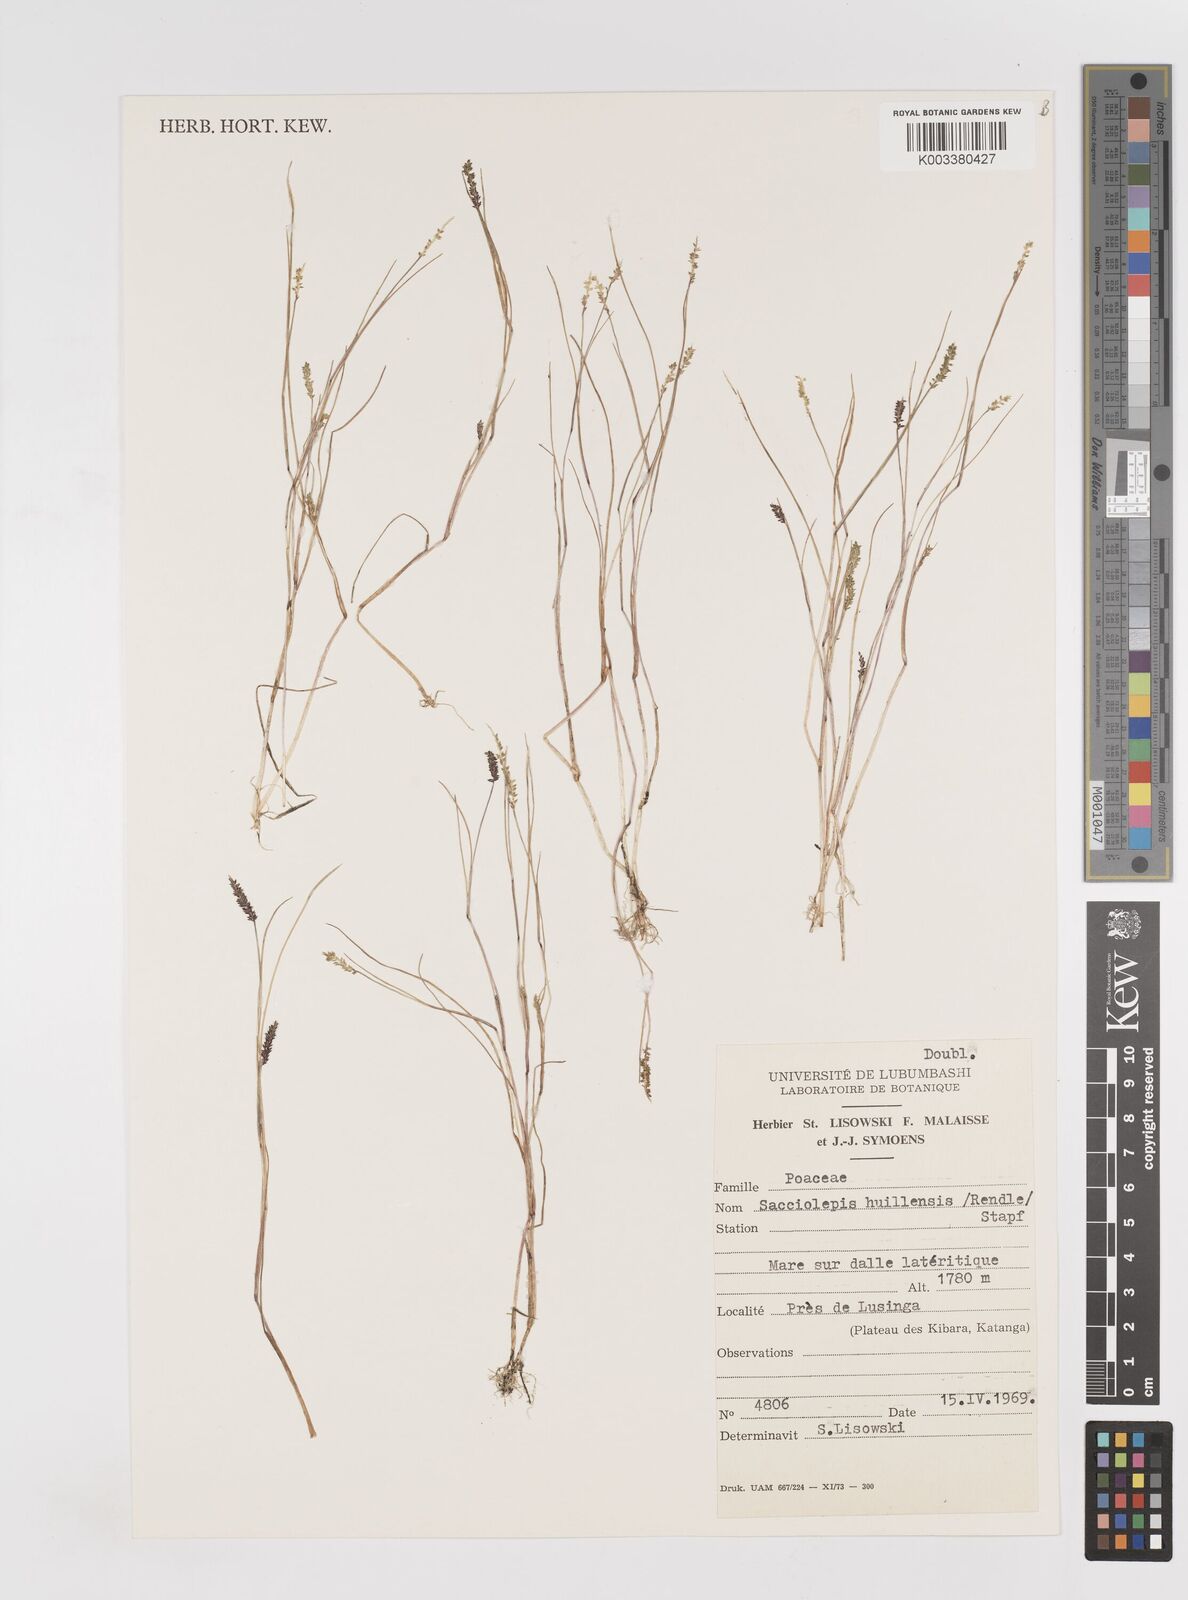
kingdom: Plantae
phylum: Tracheophyta
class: Liliopsida
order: Poales
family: Poaceae
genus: Sacciolepis
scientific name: Sacciolepis myosuroides
